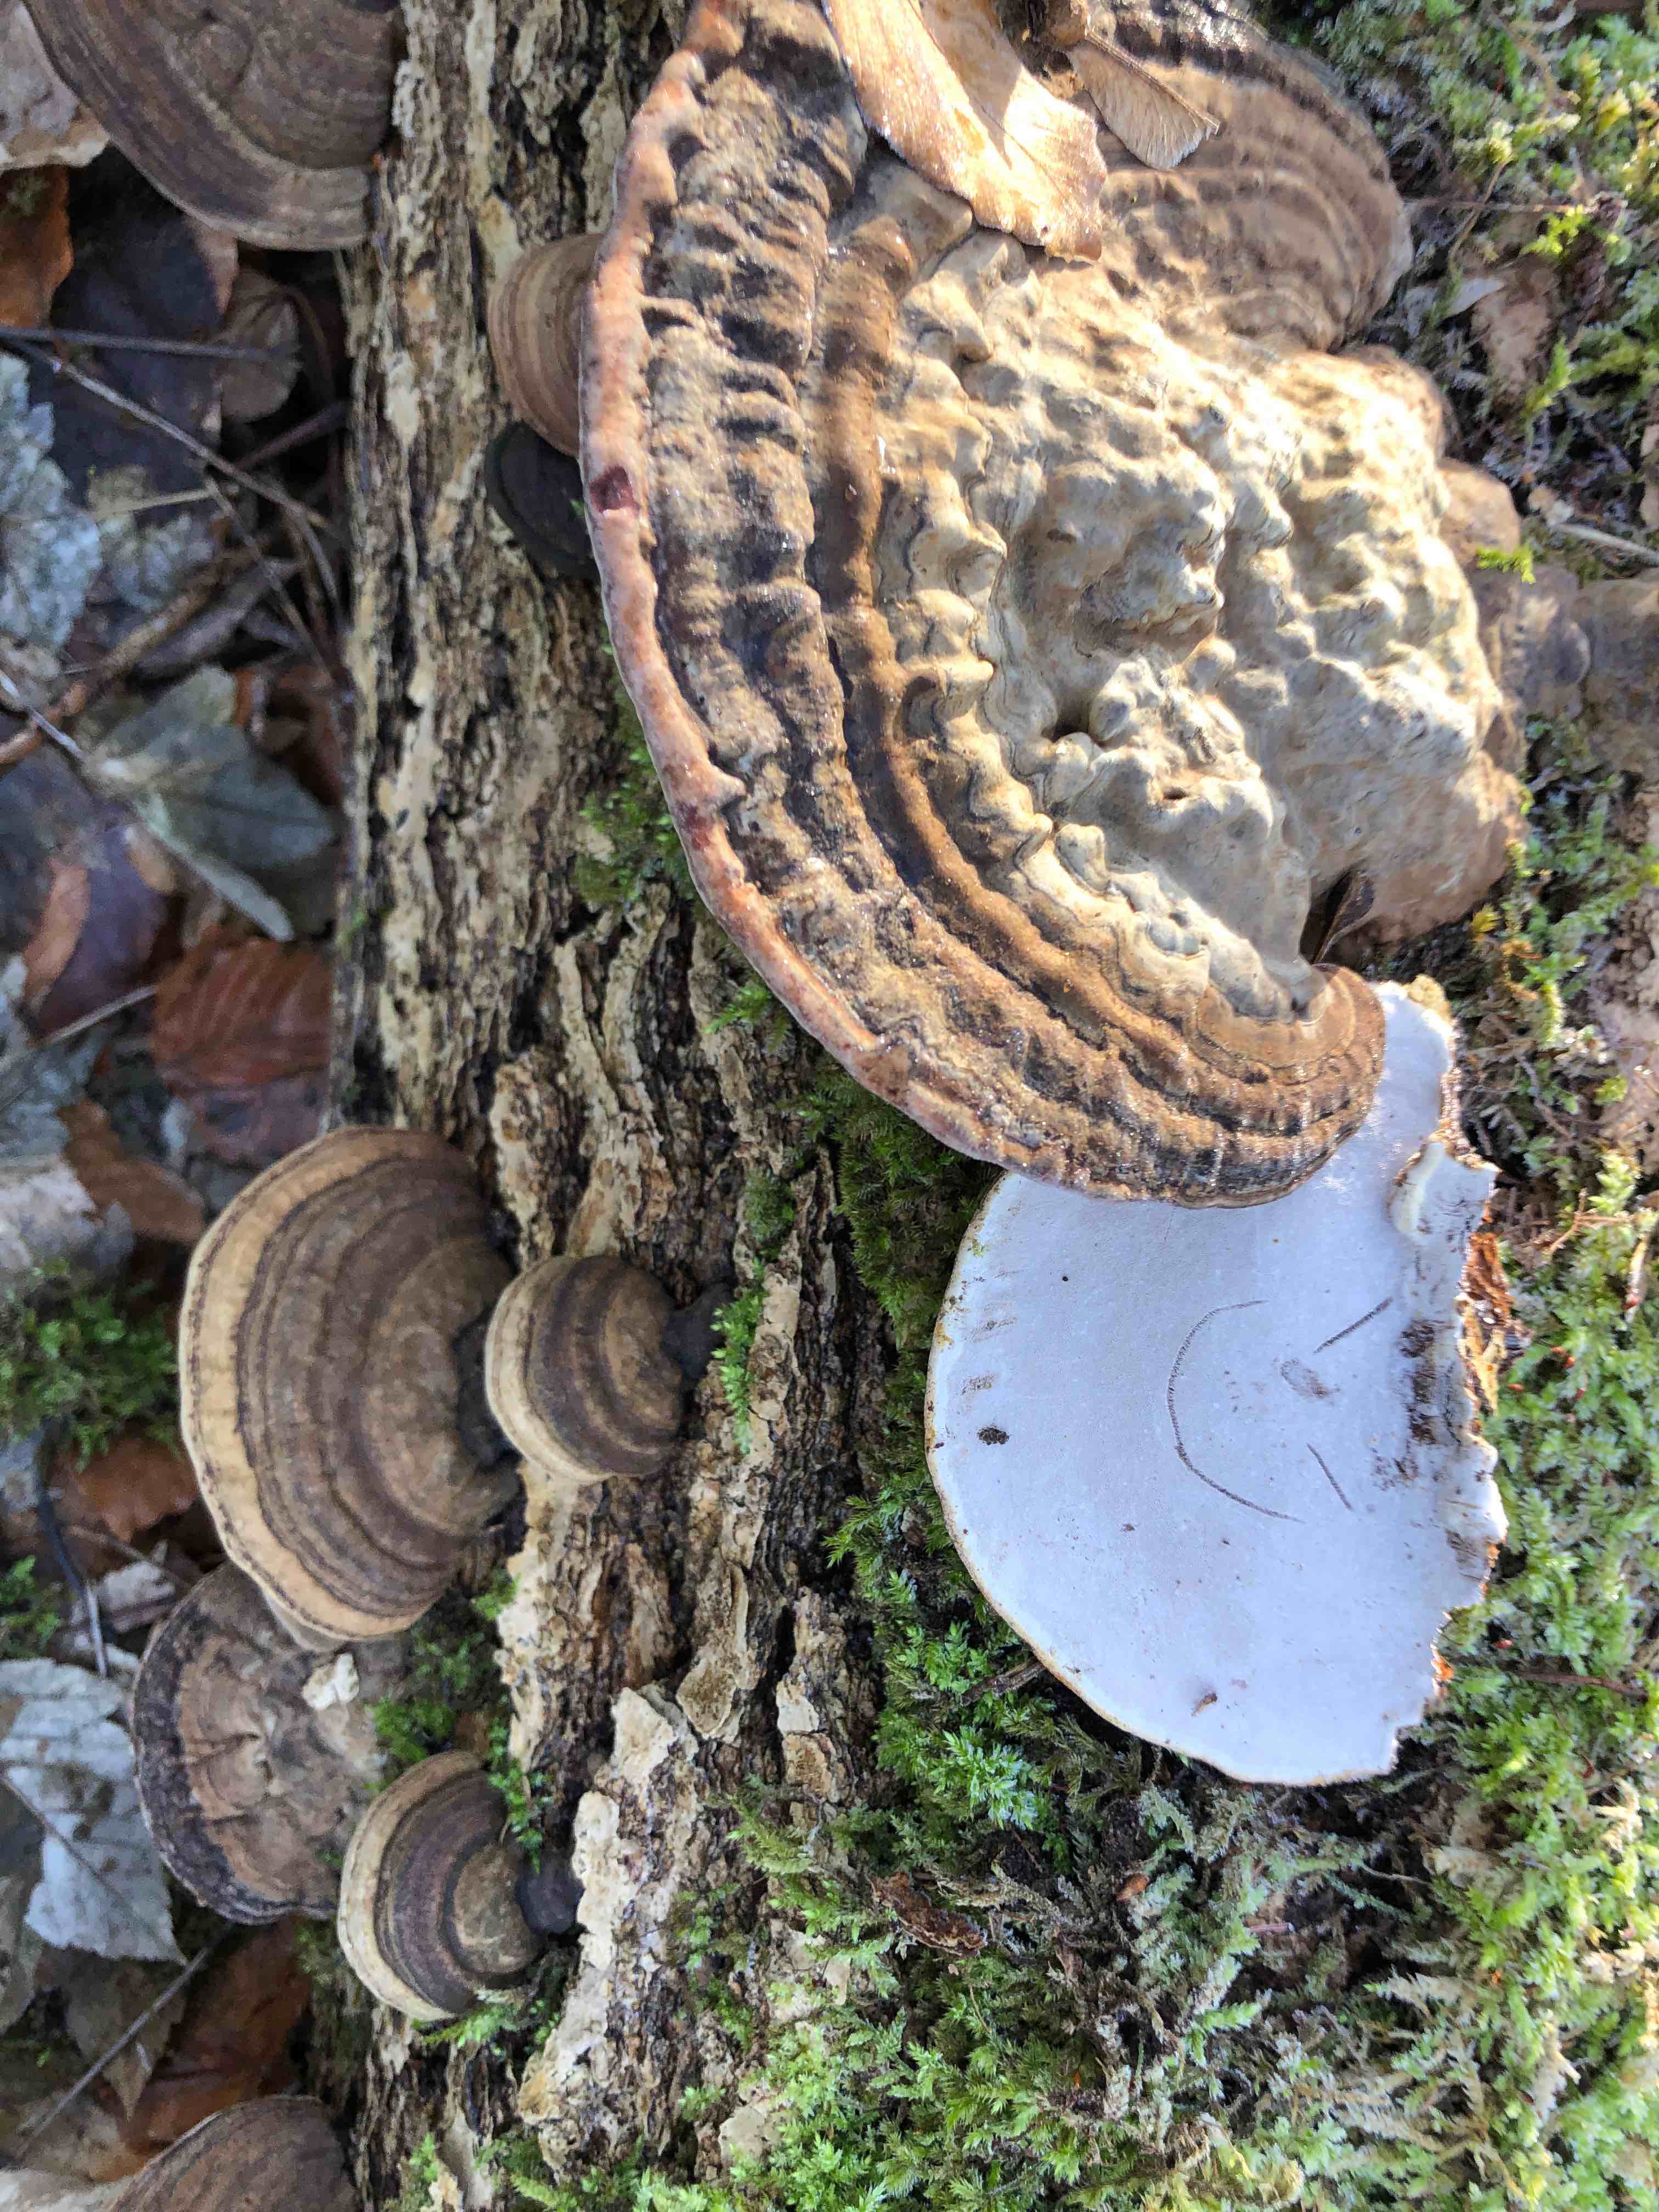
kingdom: Fungi
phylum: Basidiomycota
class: Agaricomycetes
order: Polyporales
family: Polyporaceae
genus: Ganoderma
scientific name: Ganoderma applanatum
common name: flad lakporesvamp
